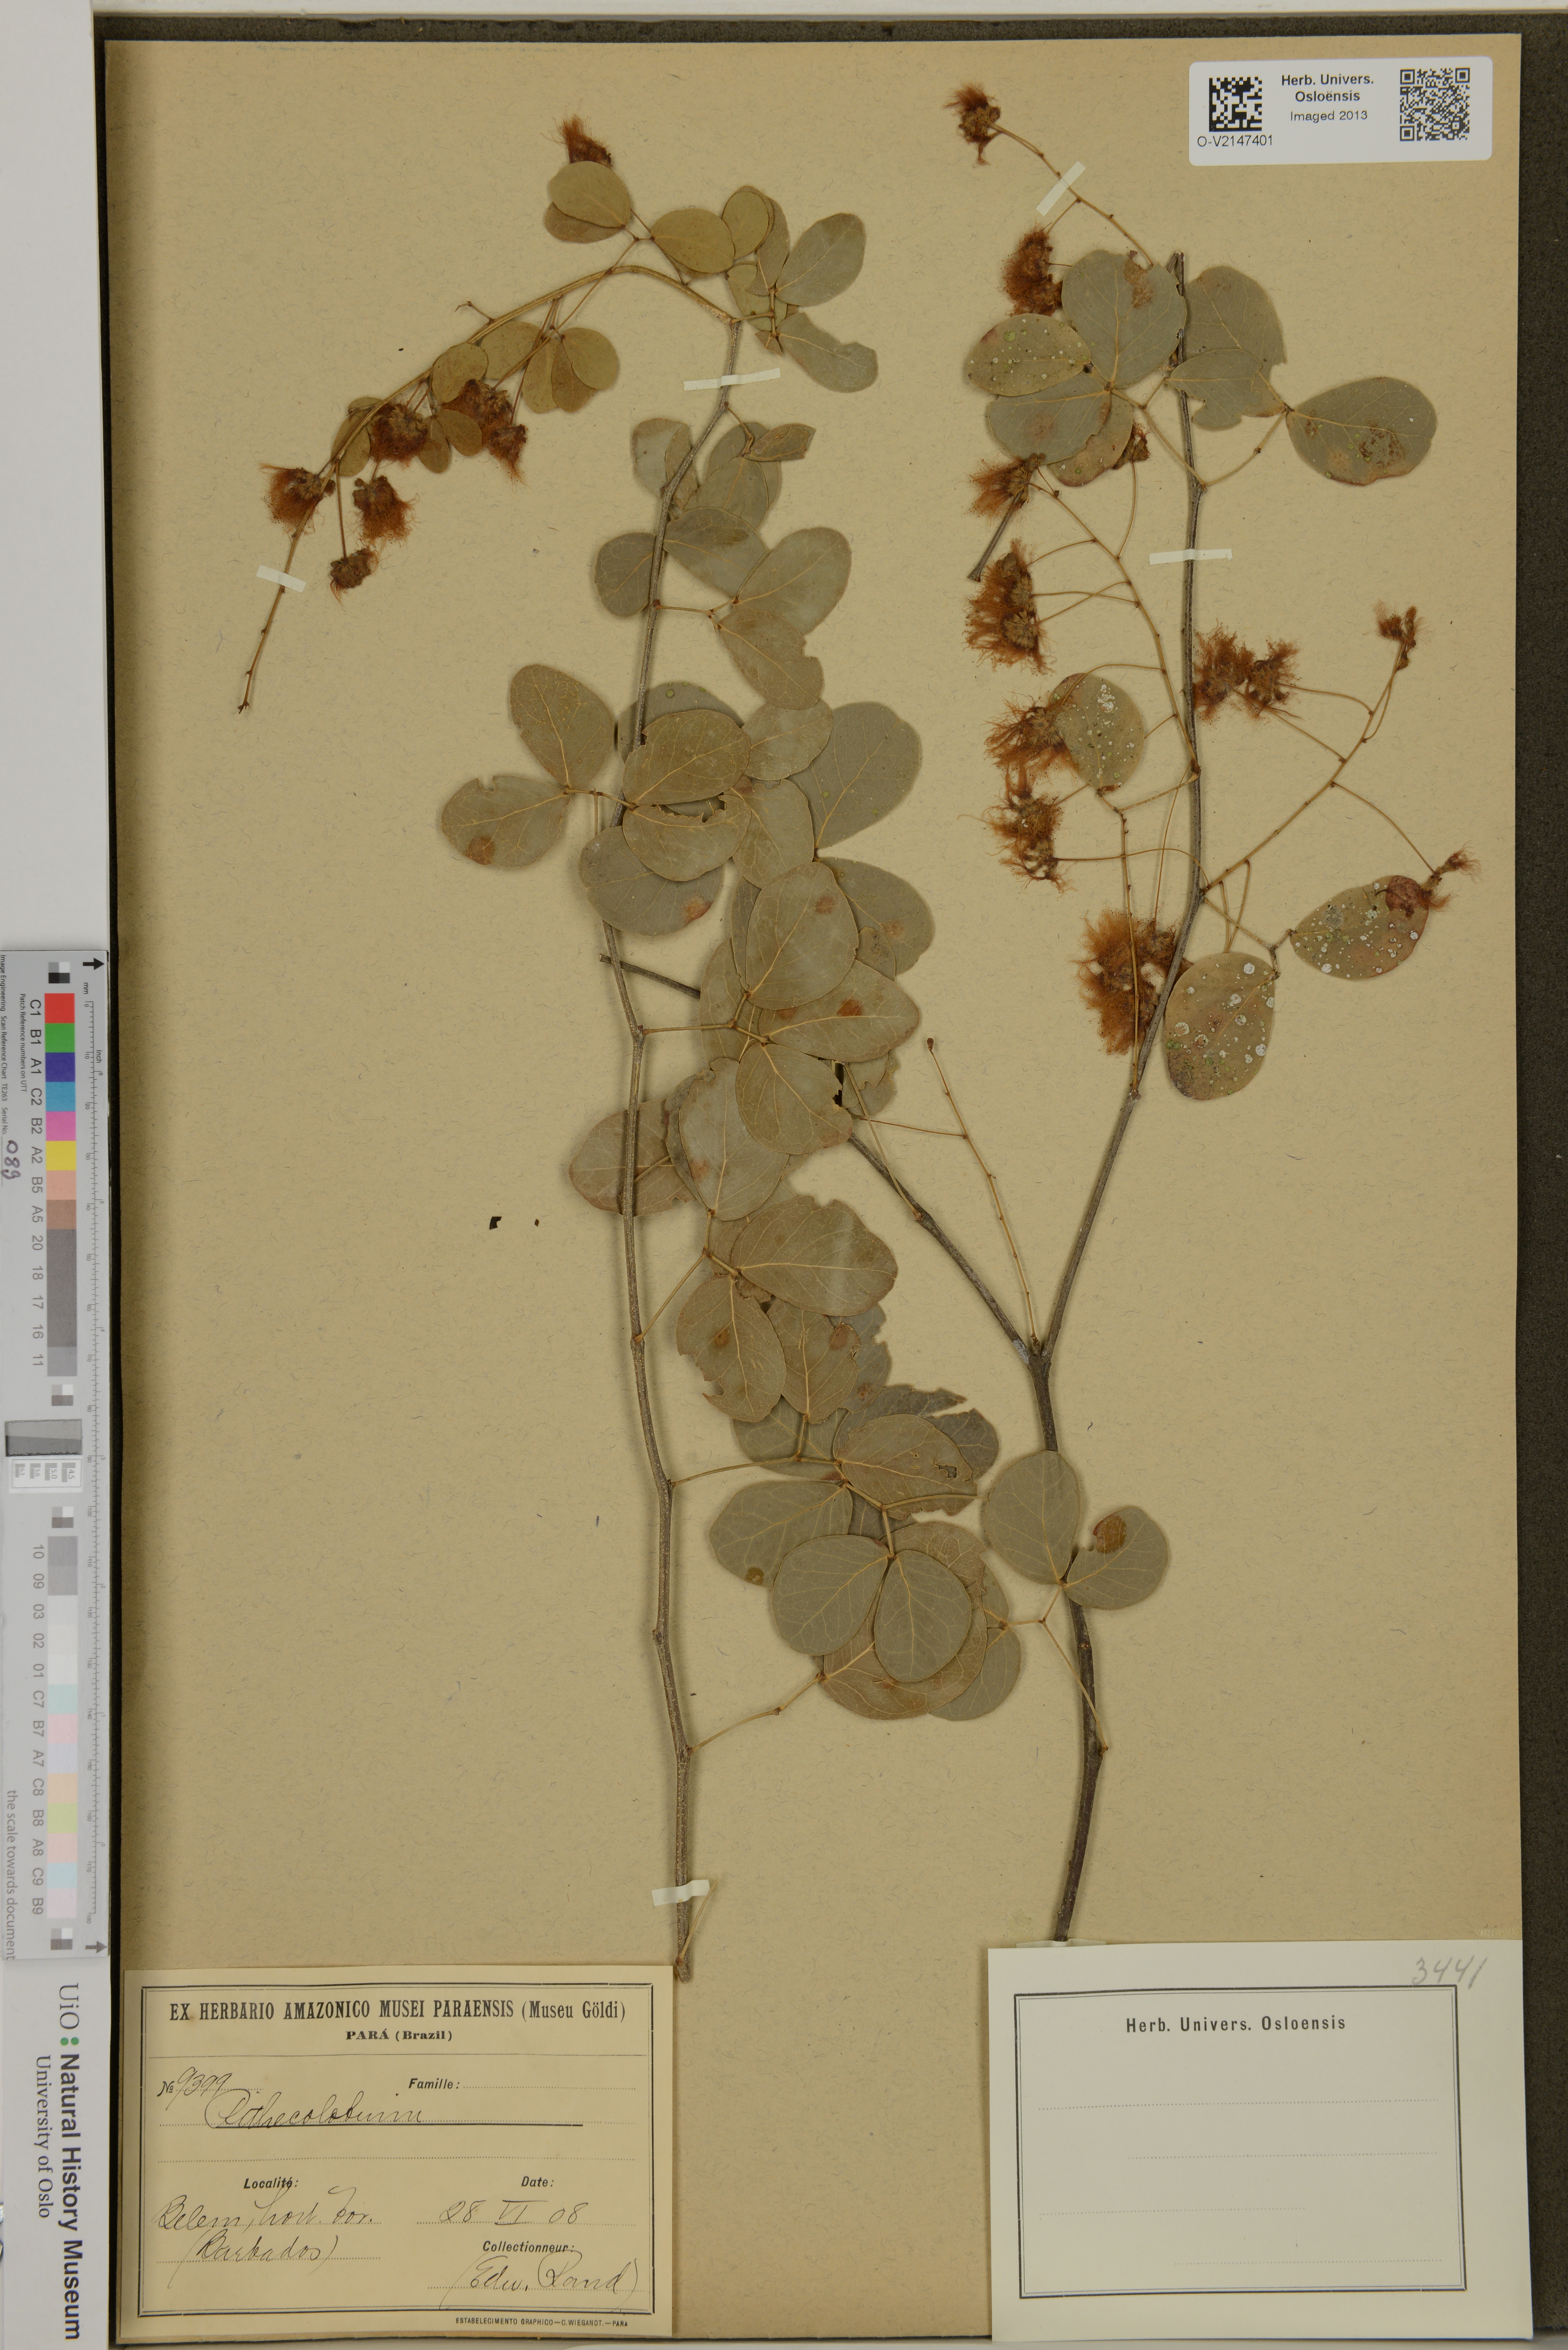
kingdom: Plantae
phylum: Tracheophyta
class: Magnoliopsida
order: Fabales
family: Fabaceae
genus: Pithecolobium
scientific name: Pithecolobium
